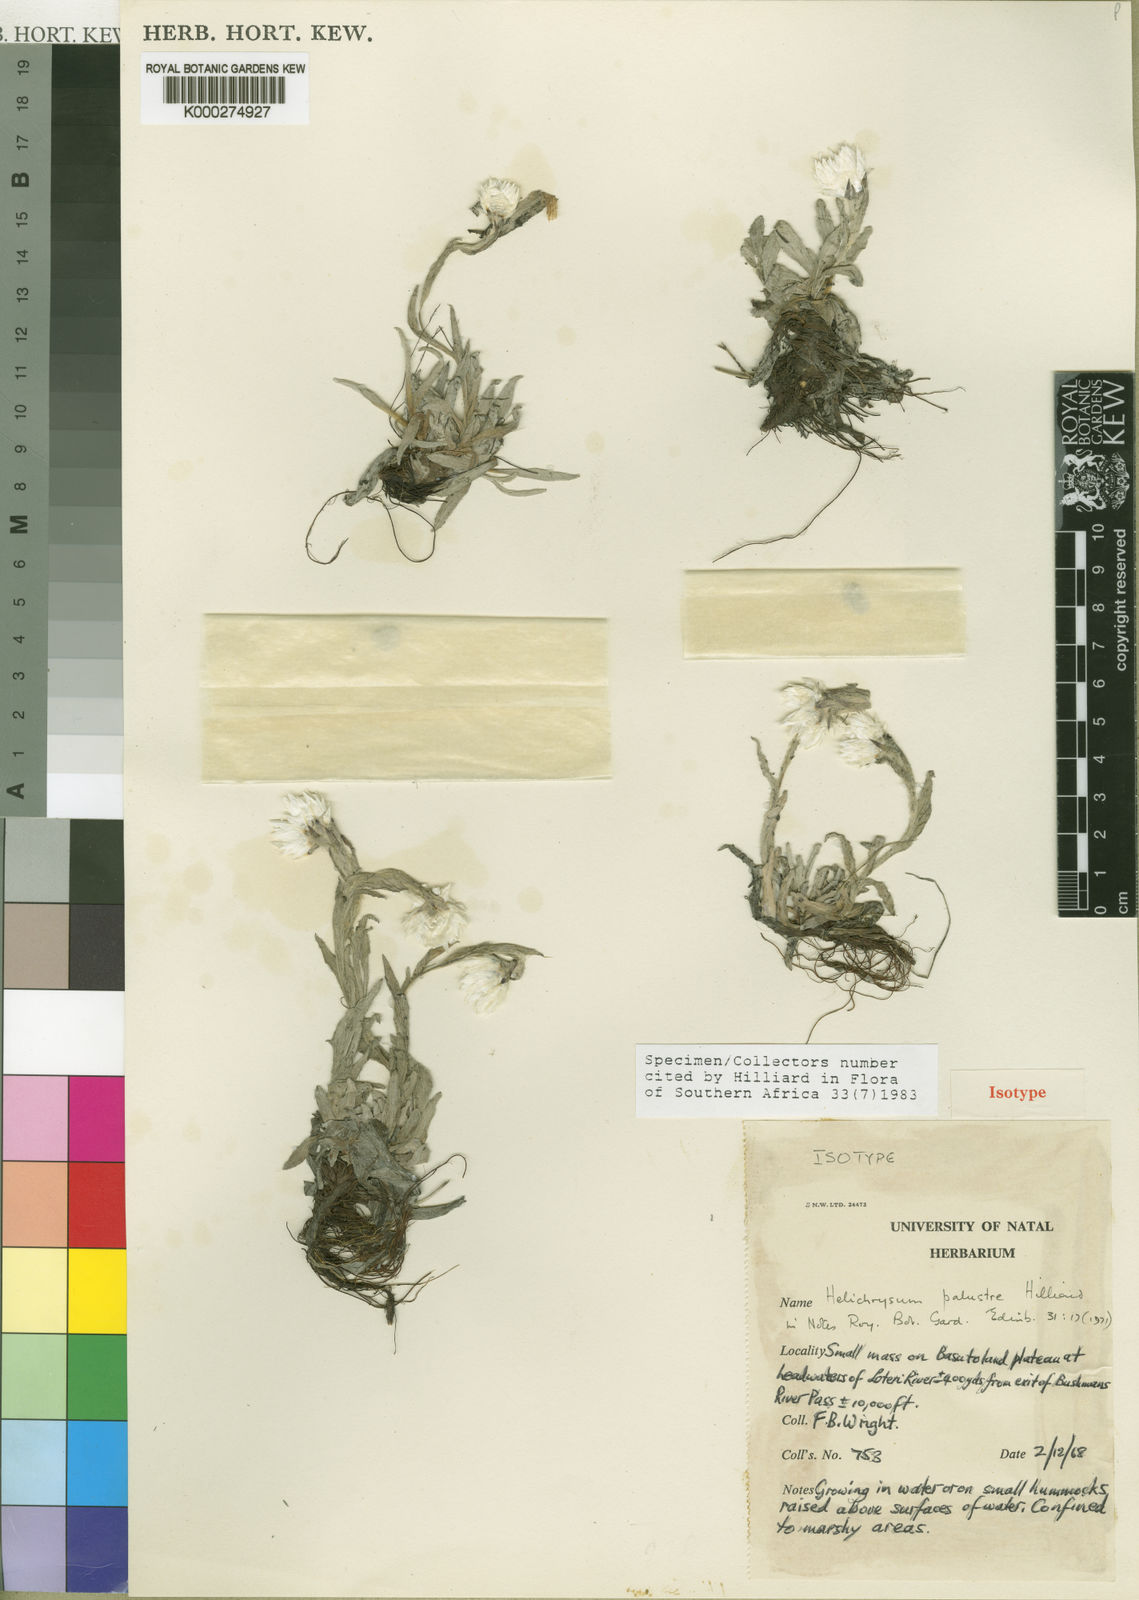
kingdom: Plantae
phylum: Tracheophyta
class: Magnoliopsida
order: Asterales
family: Asteraceae
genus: Helichrysum
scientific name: Helichrysum palustre
